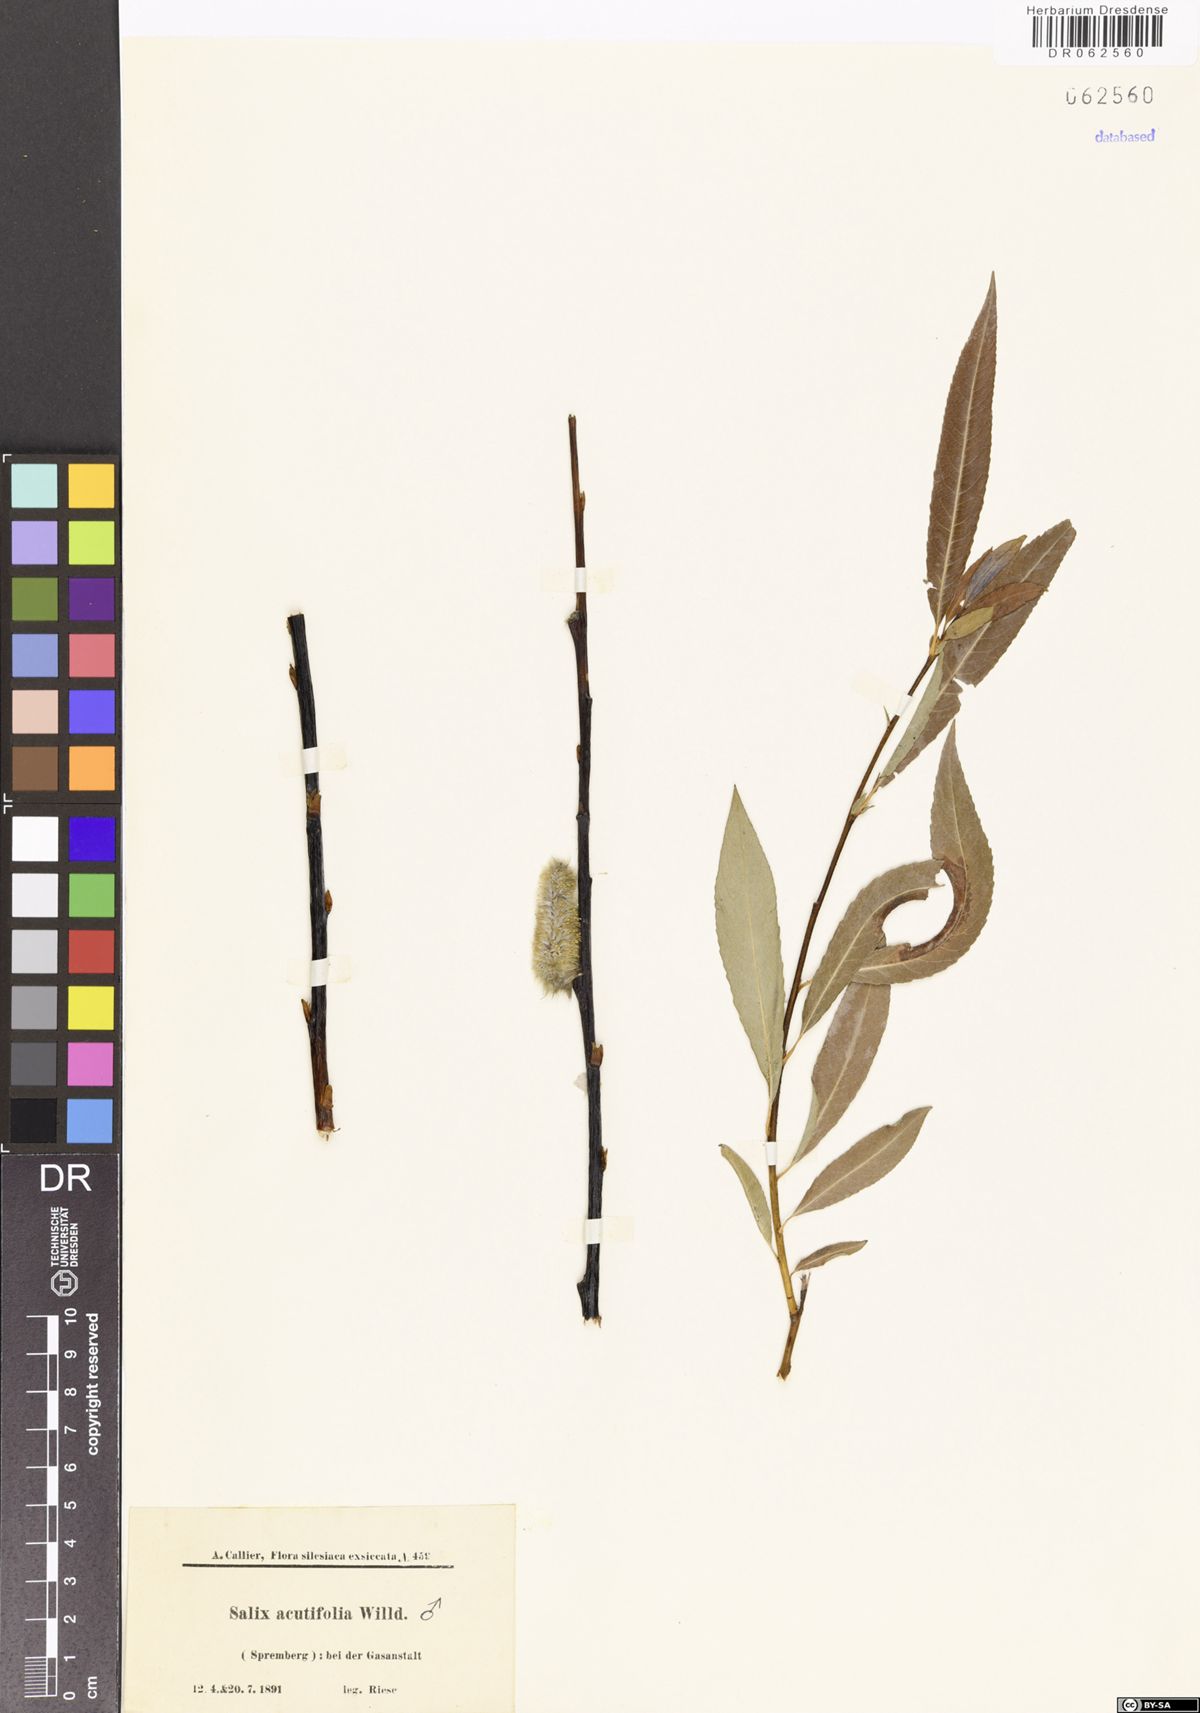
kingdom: Plantae
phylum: Tracheophyta
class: Magnoliopsida
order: Malpighiales
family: Salicaceae
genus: Salix
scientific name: Salix acutifolia
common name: Siberian violet-willow
